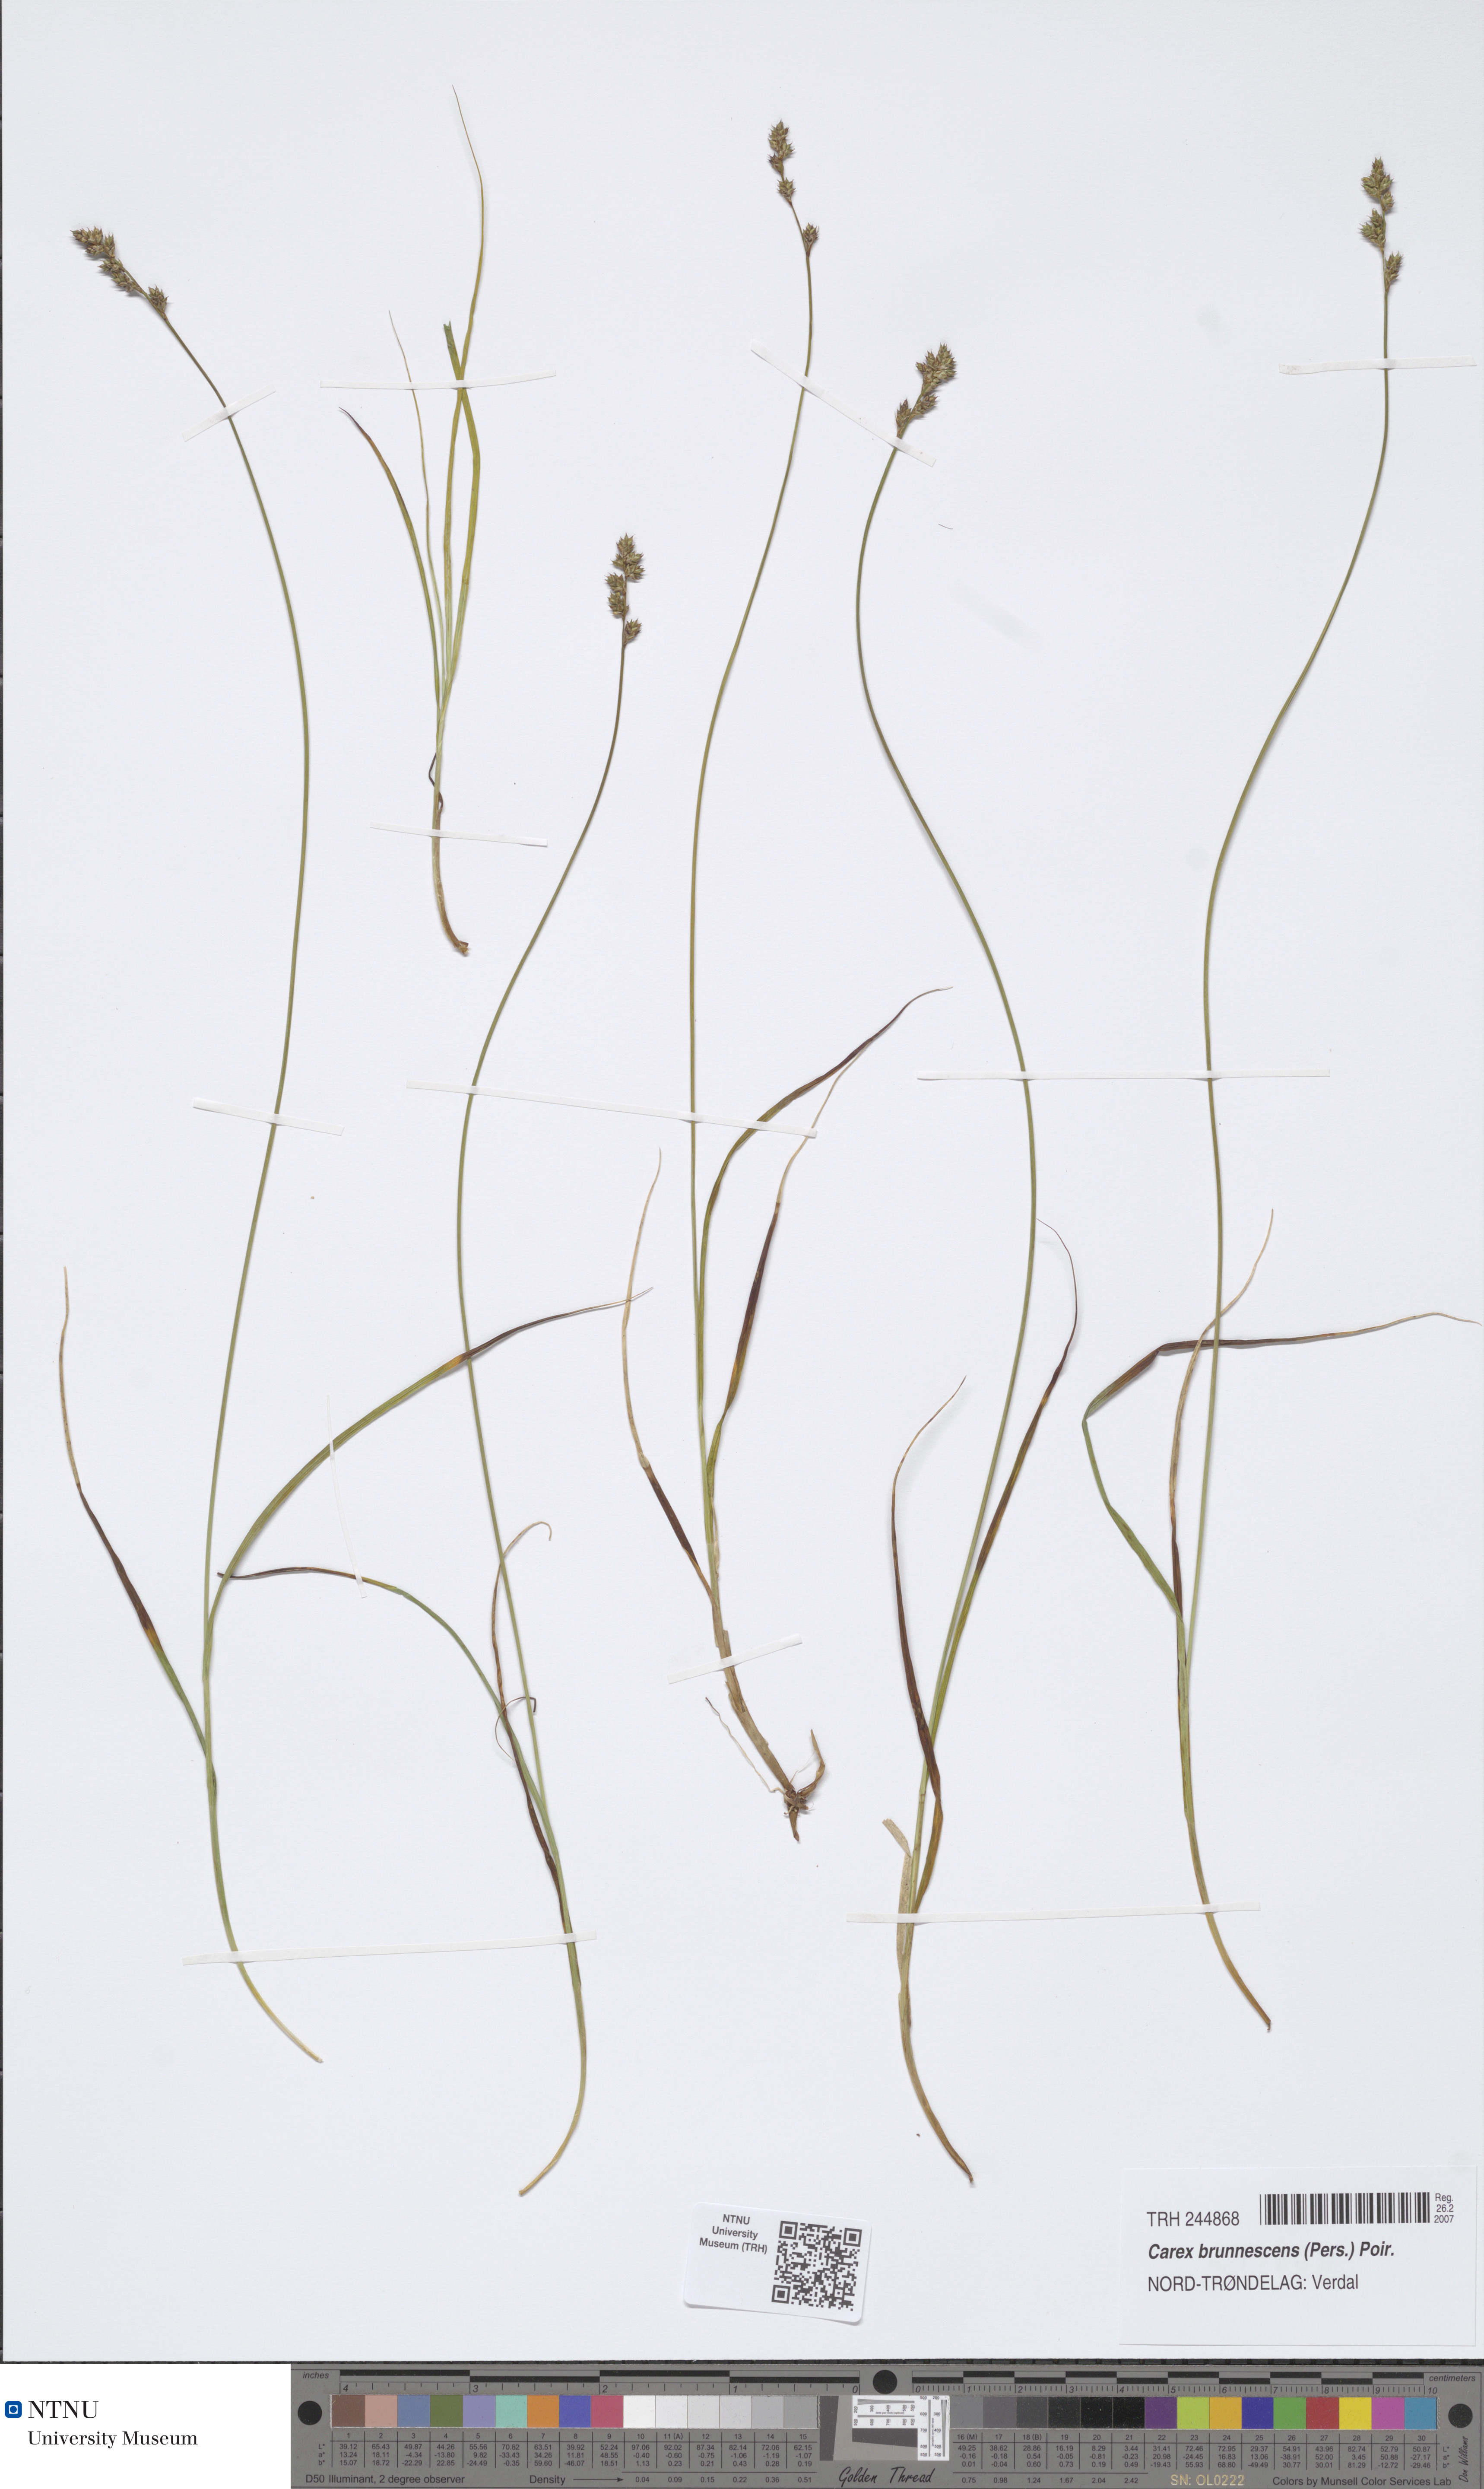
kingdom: Plantae
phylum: Tracheophyta
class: Liliopsida
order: Poales
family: Cyperaceae
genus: Carex
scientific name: Carex brunnescens
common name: Brown sedge
